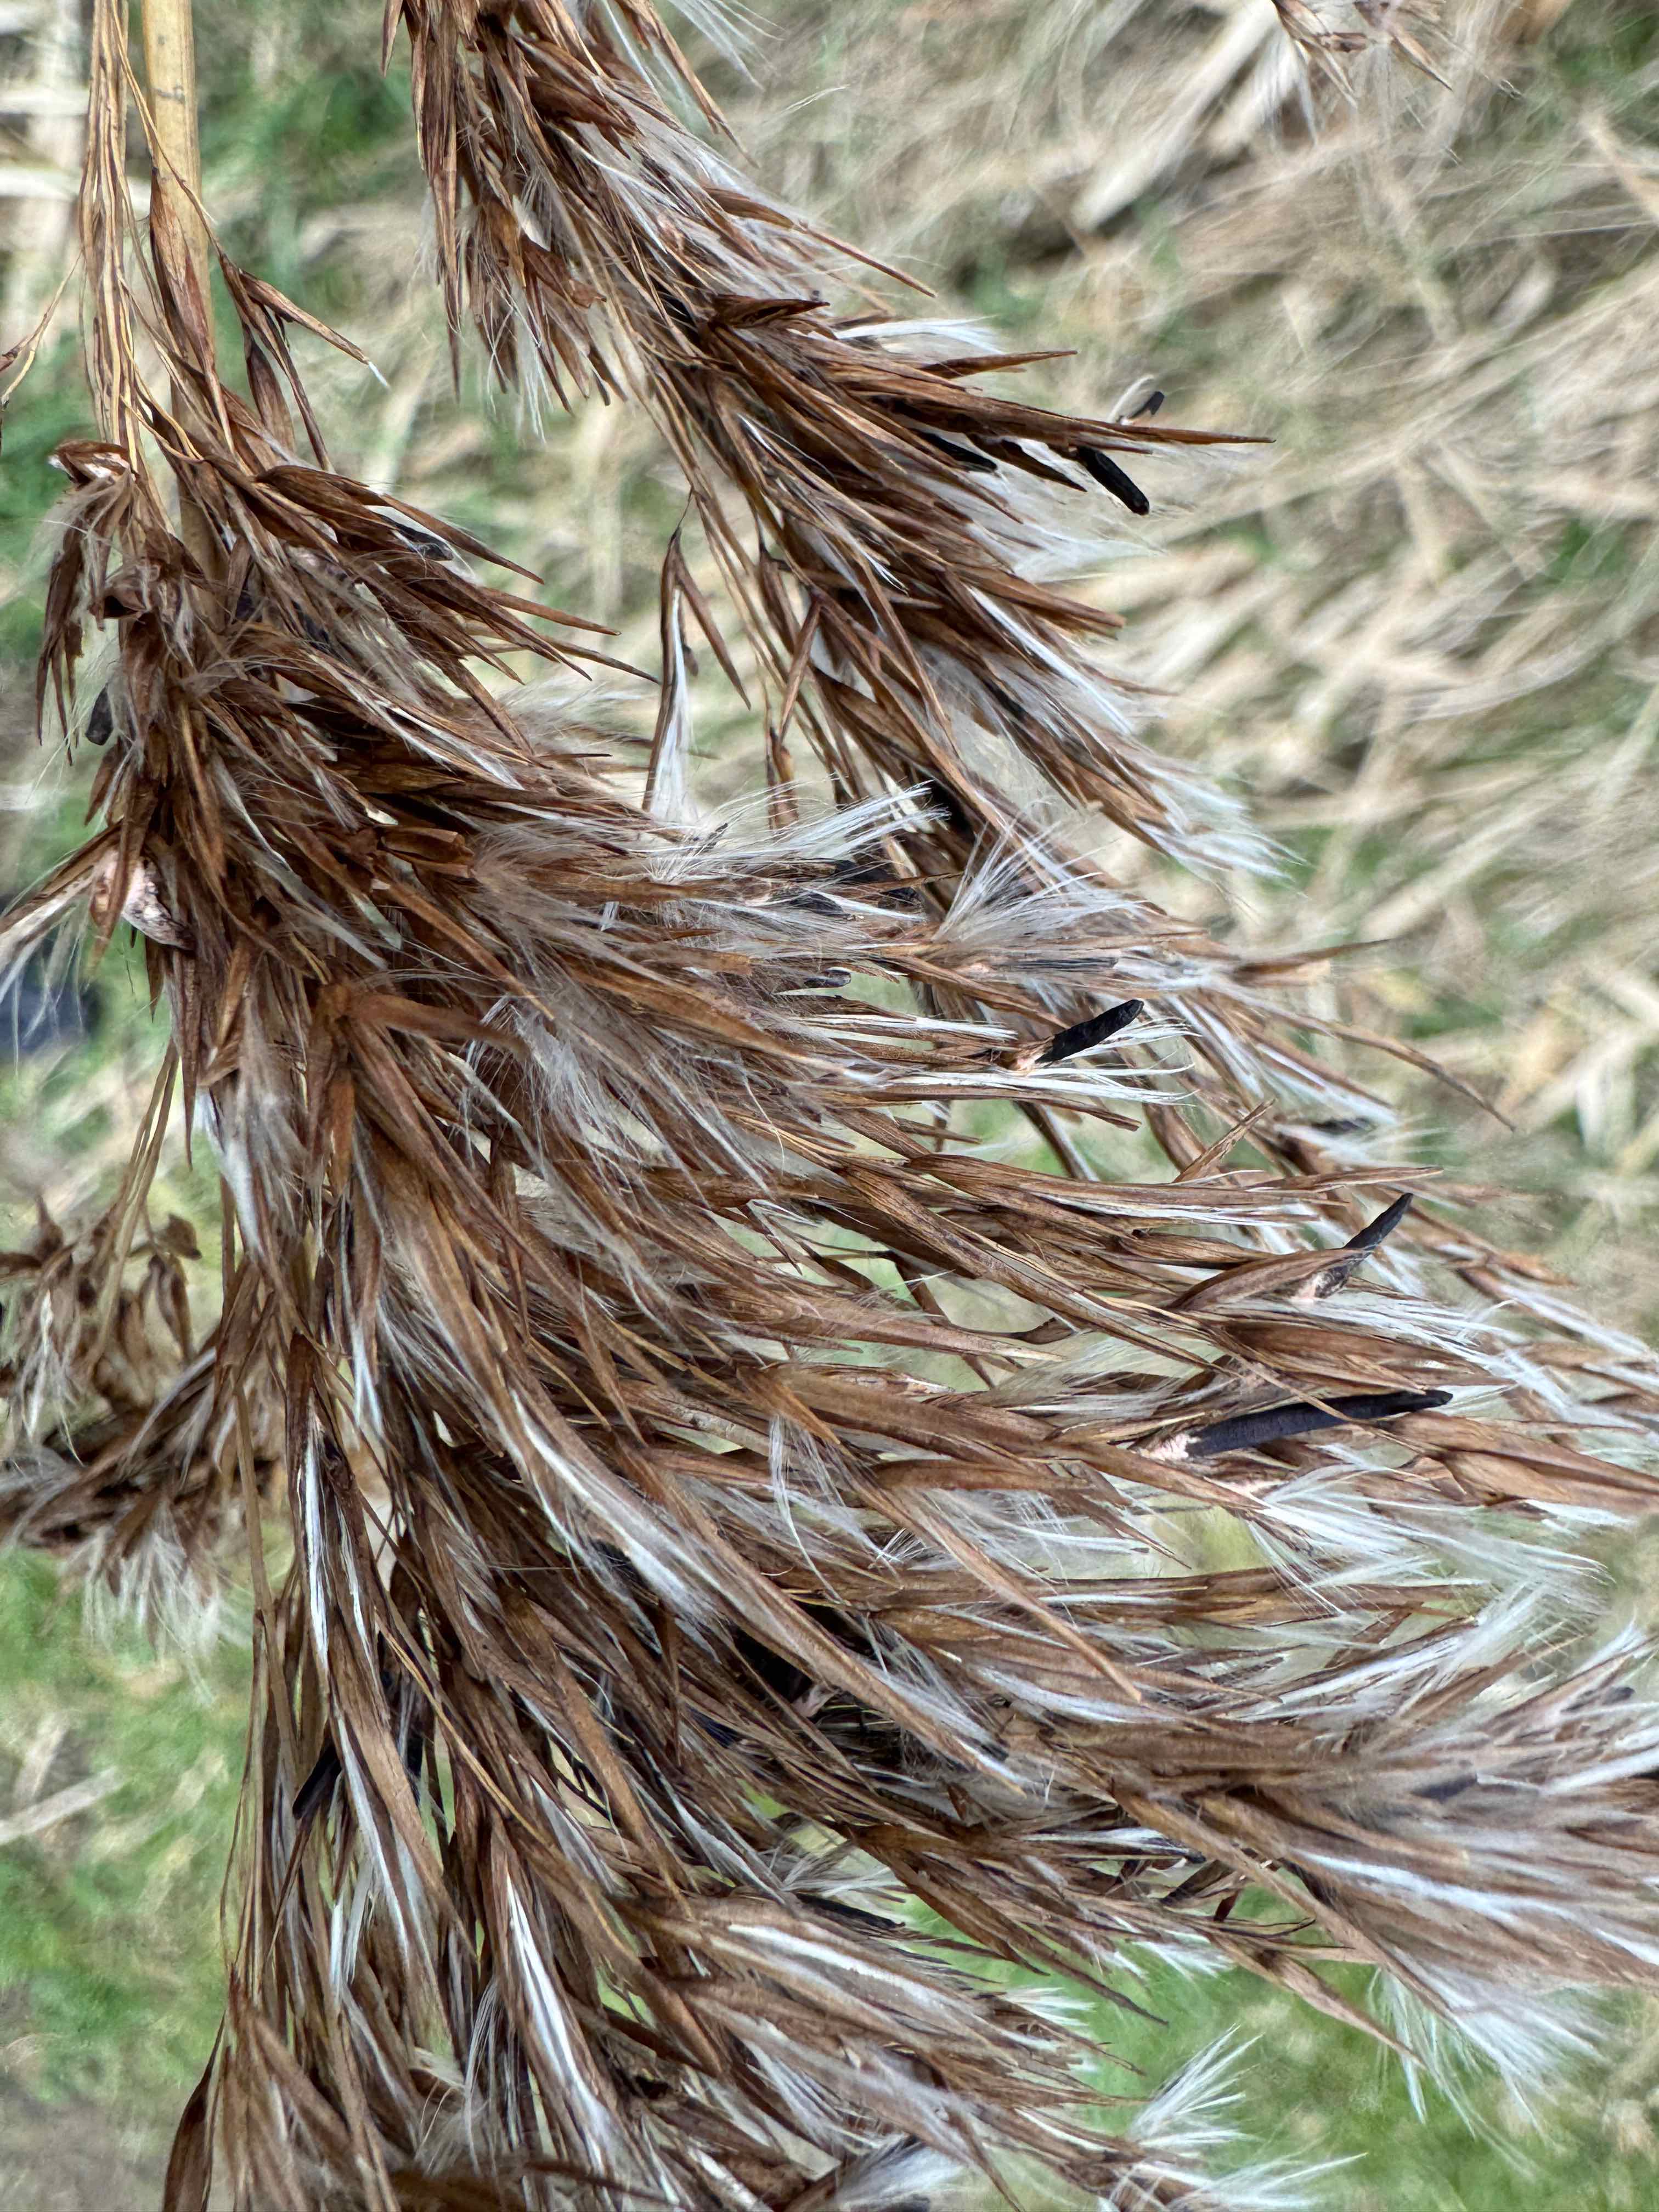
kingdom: Fungi
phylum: Ascomycota
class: Sordariomycetes
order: Hypocreales
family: Clavicipitaceae
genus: Claviceps
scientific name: Claviceps arundinis
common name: tagrør-meldrøjer
